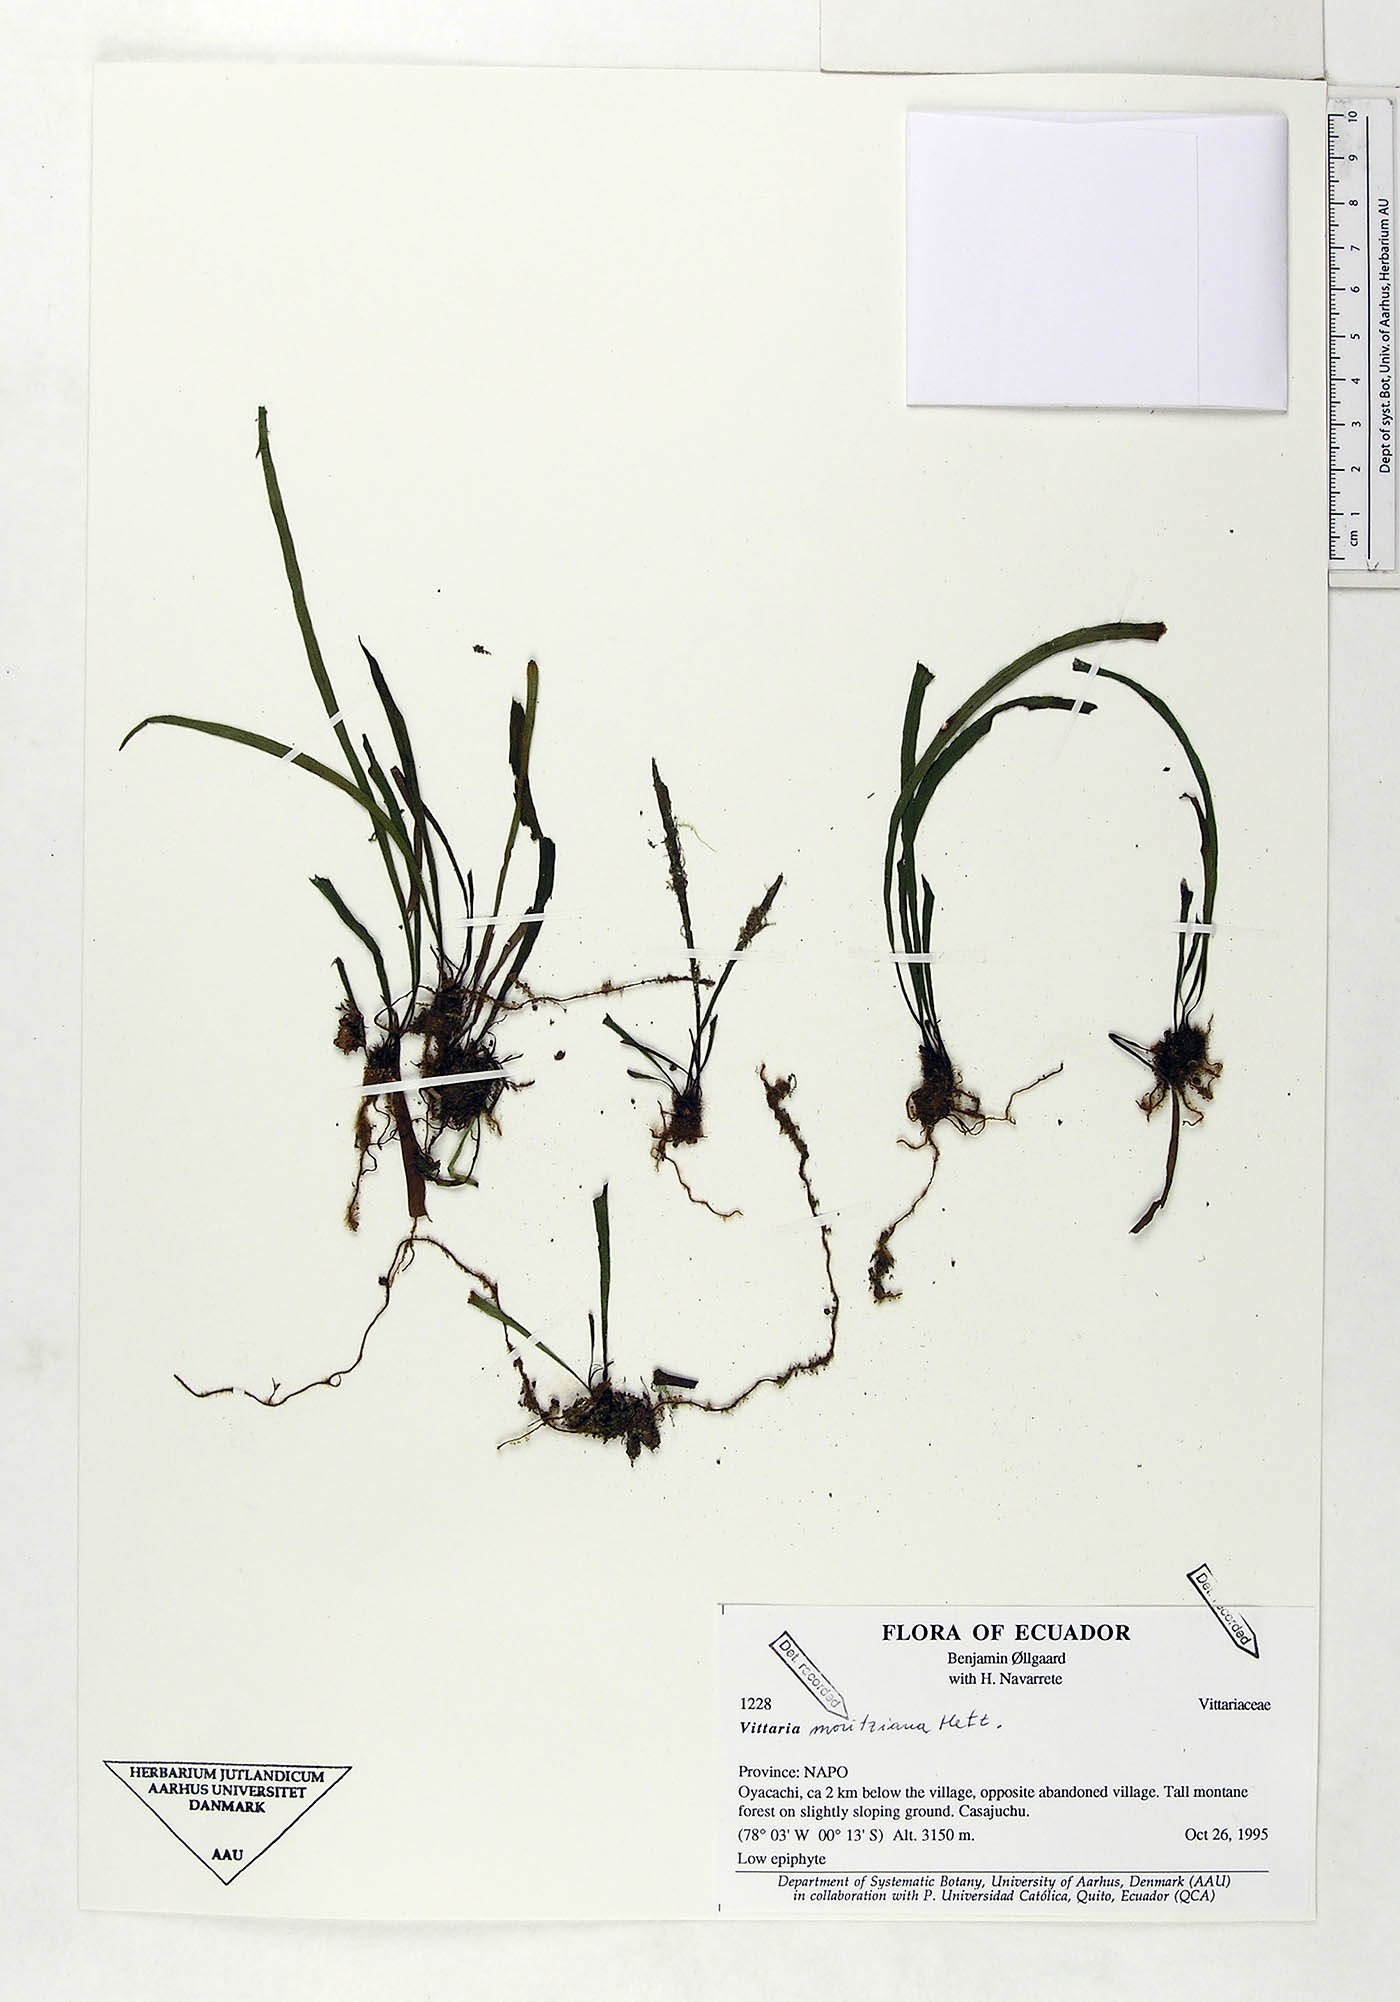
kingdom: Plantae
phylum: Tracheophyta
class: Polypodiopsida
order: Polypodiales
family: Pteridaceae
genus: Radiovittaria
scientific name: Radiovittaria moritziana
